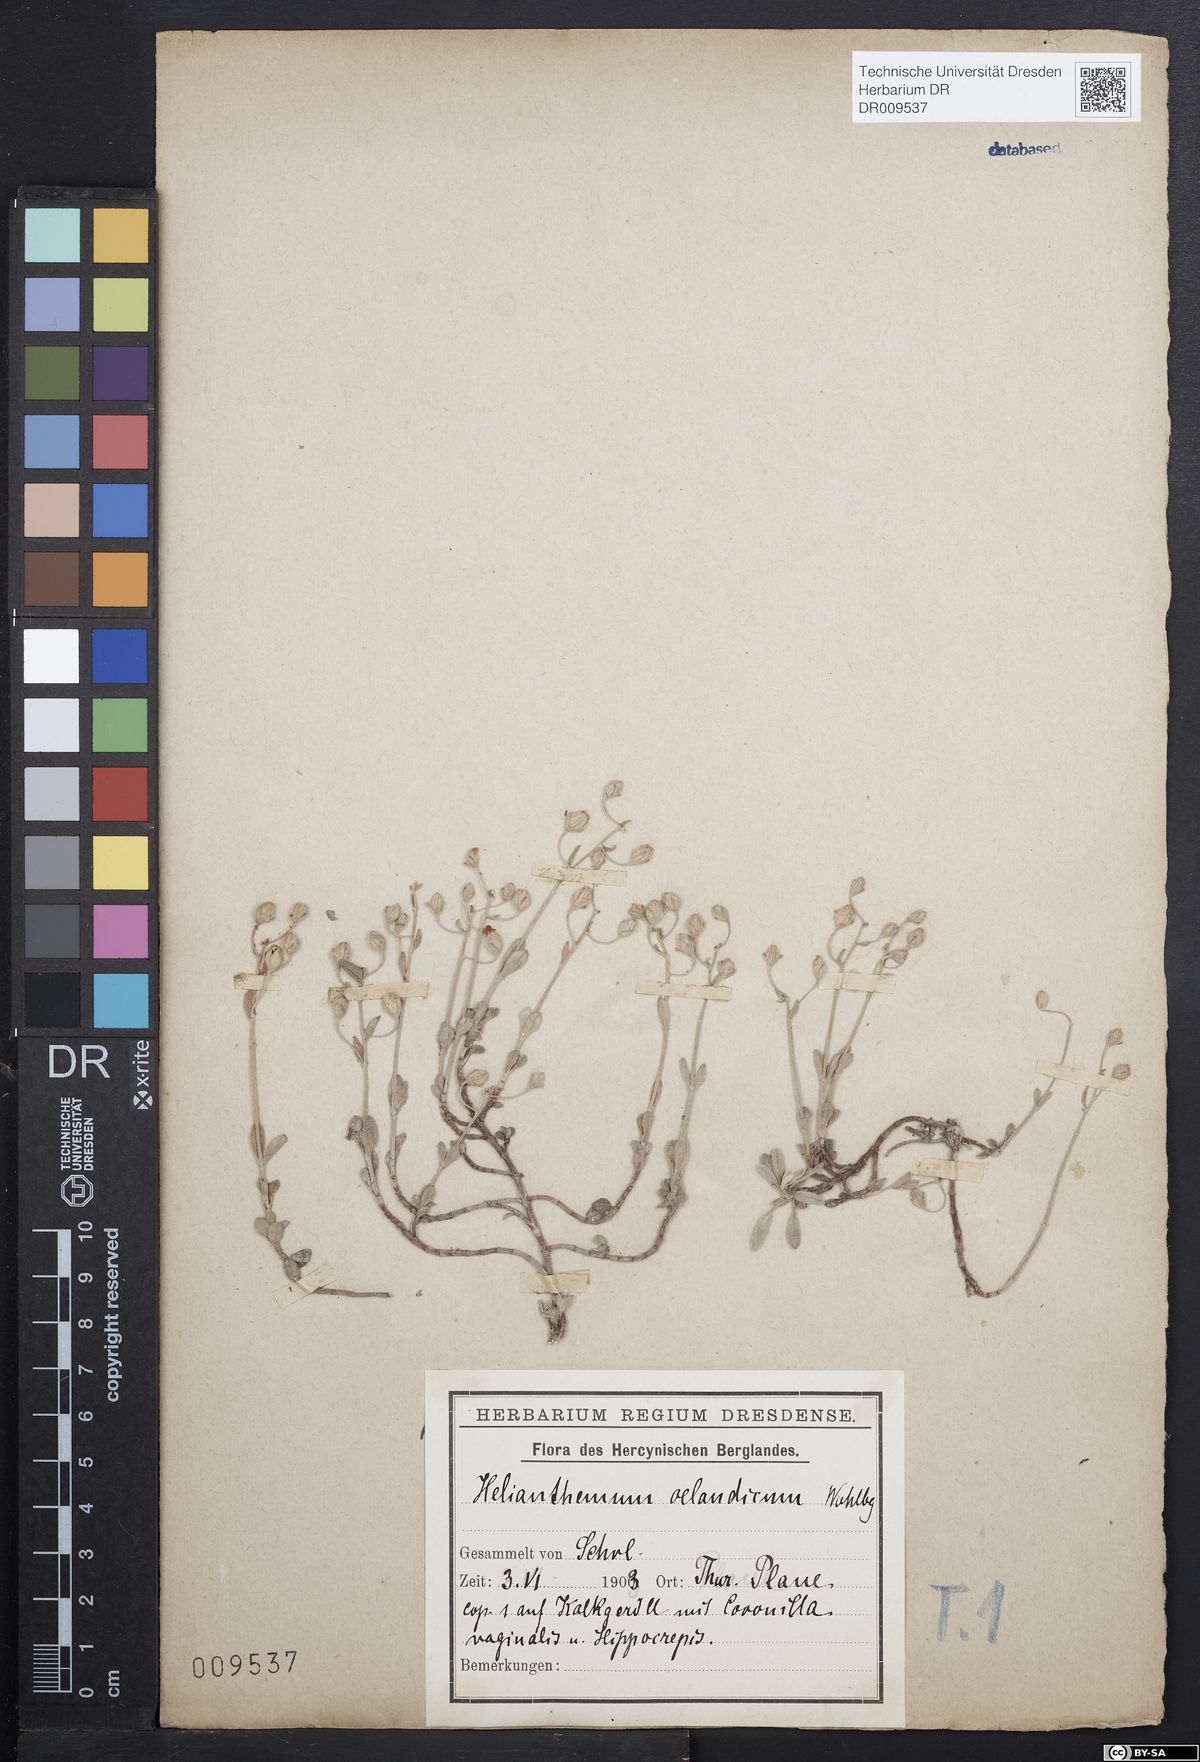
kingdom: Plantae
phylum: Tracheophyta
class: Magnoliopsida
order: Malvales
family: Cistaceae
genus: Helianthemum
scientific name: Helianthemum canum
